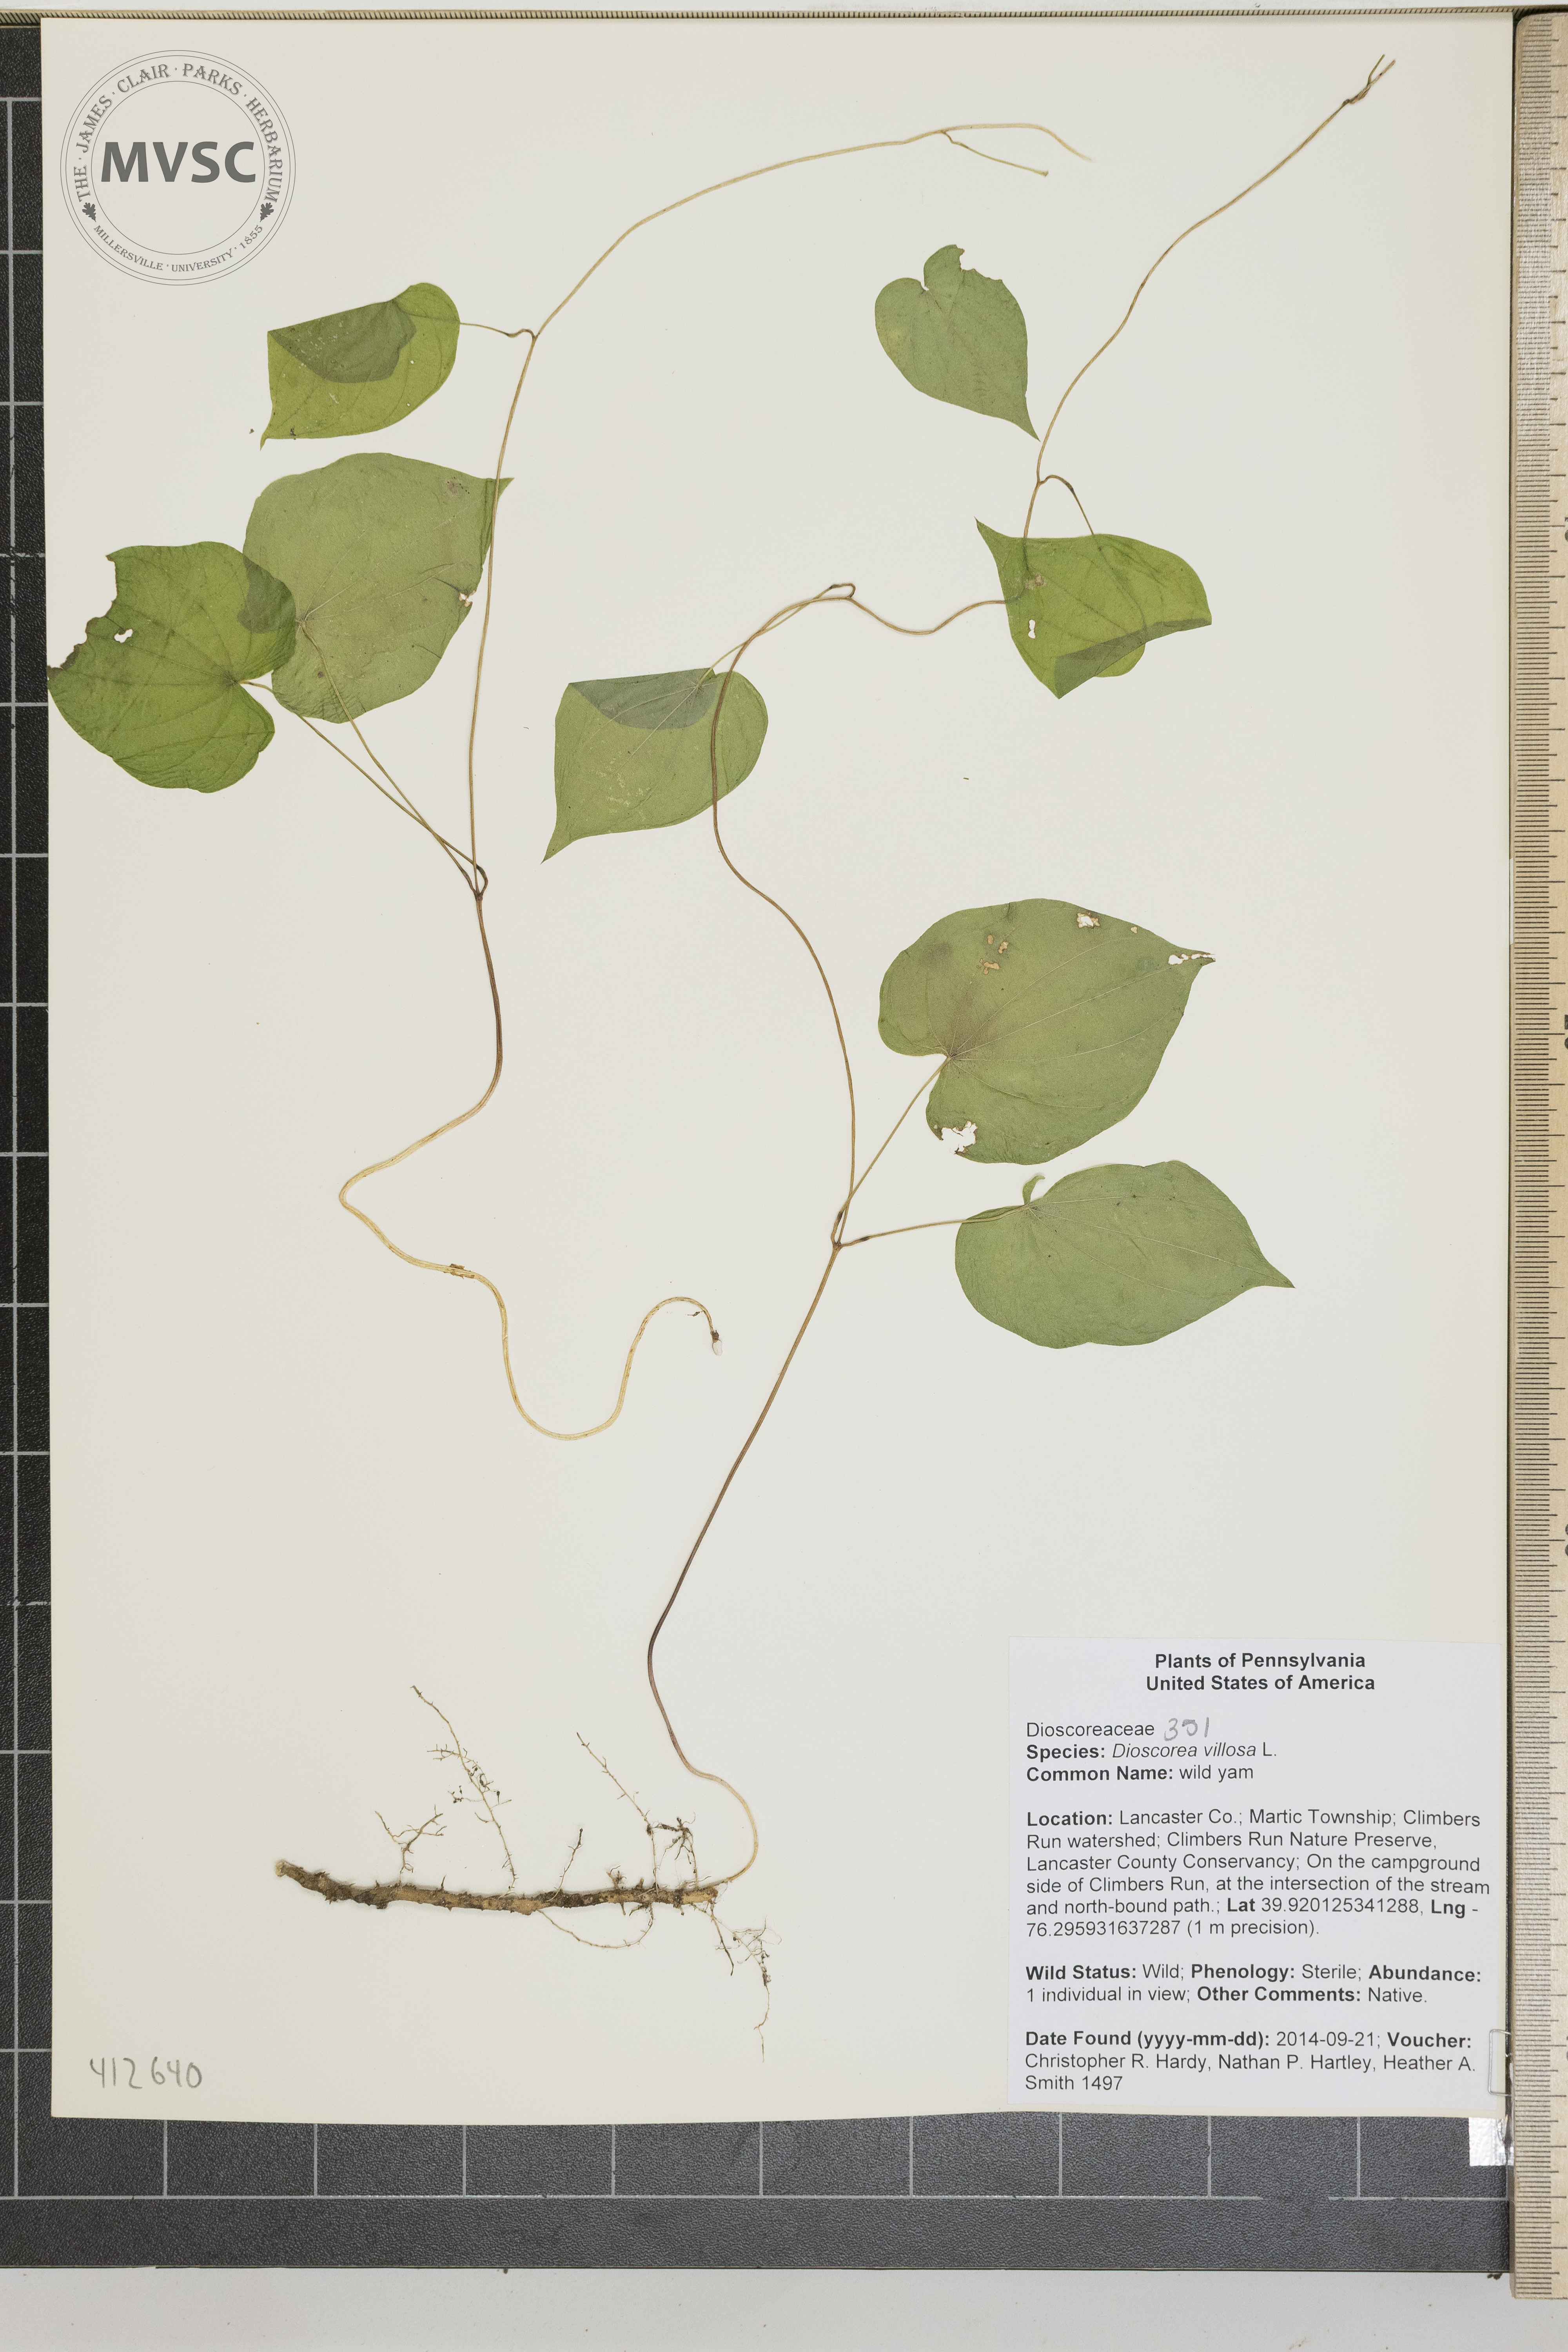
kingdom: Plantae
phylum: Tracheophyta
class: Liliopsida
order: Dioscoreales
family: Dioscoreaceae
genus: Dioscorea
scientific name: Dioscorea villosa
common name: wild yam
